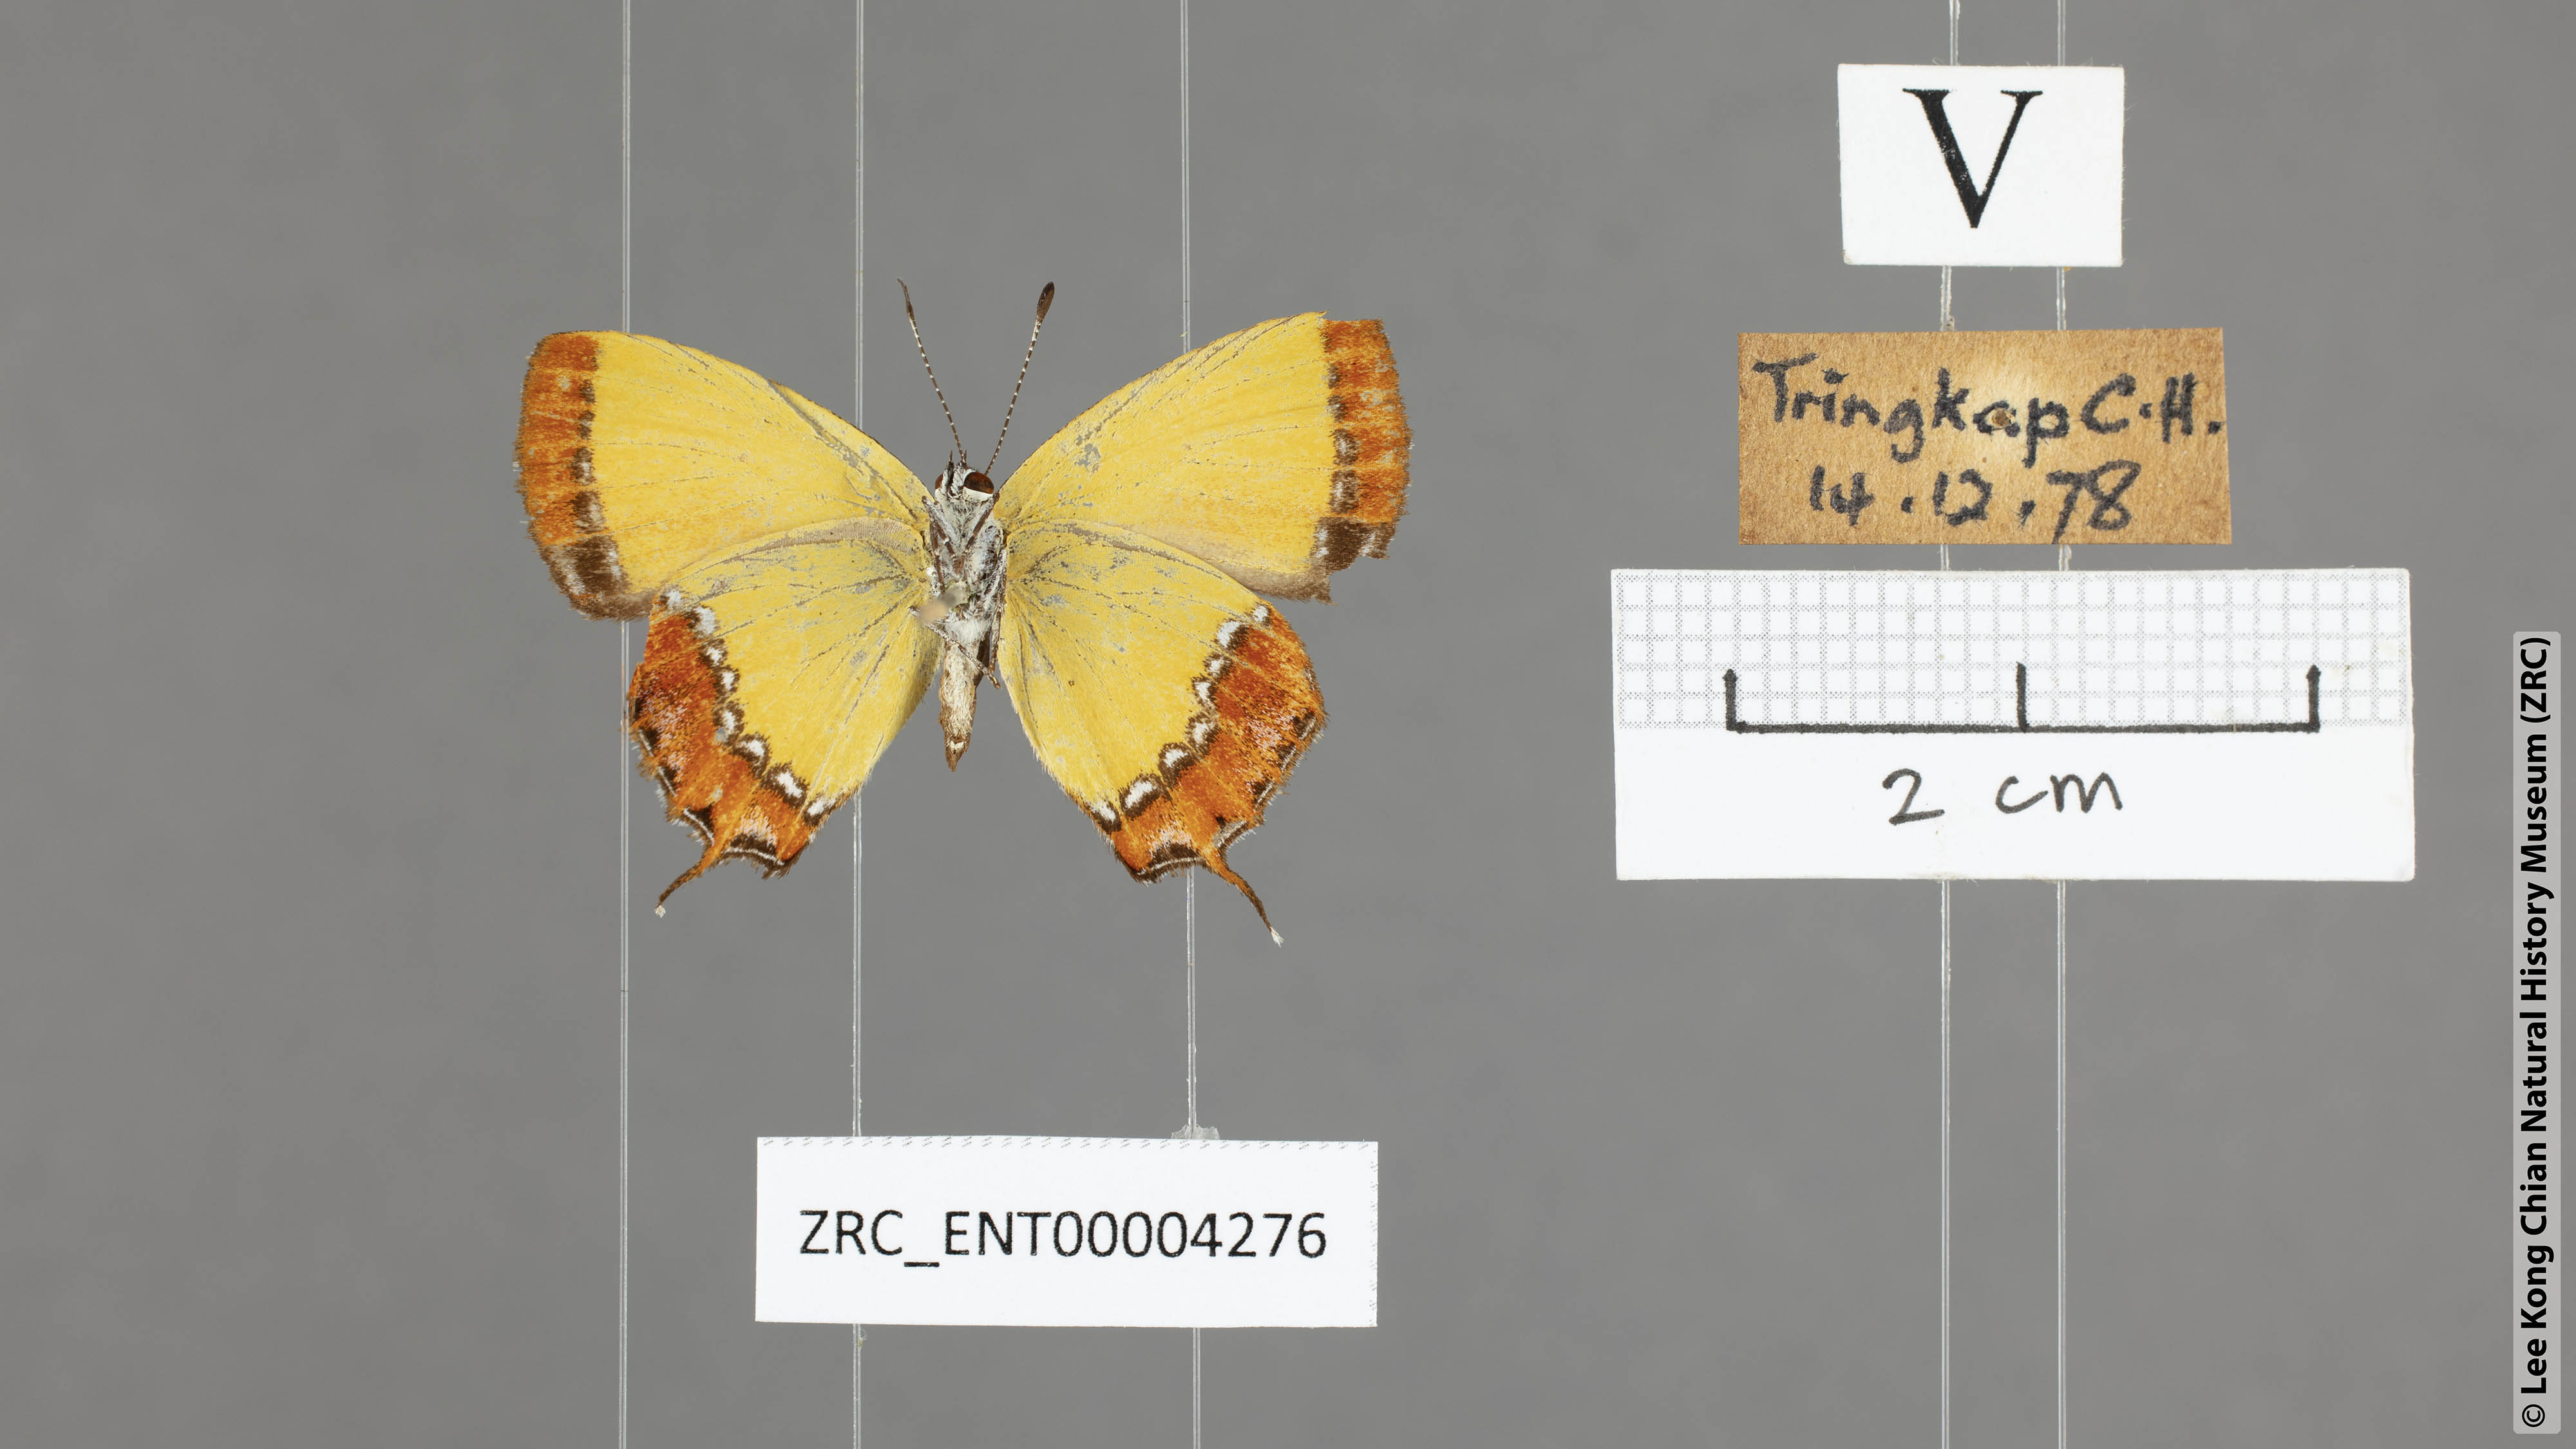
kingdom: Animalia
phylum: Arthropoda
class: Insecta
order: Lepidoptera
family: Lycaenidae
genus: Heliophorus
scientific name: Heliophorus ila
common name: Restricted purple sapphire
